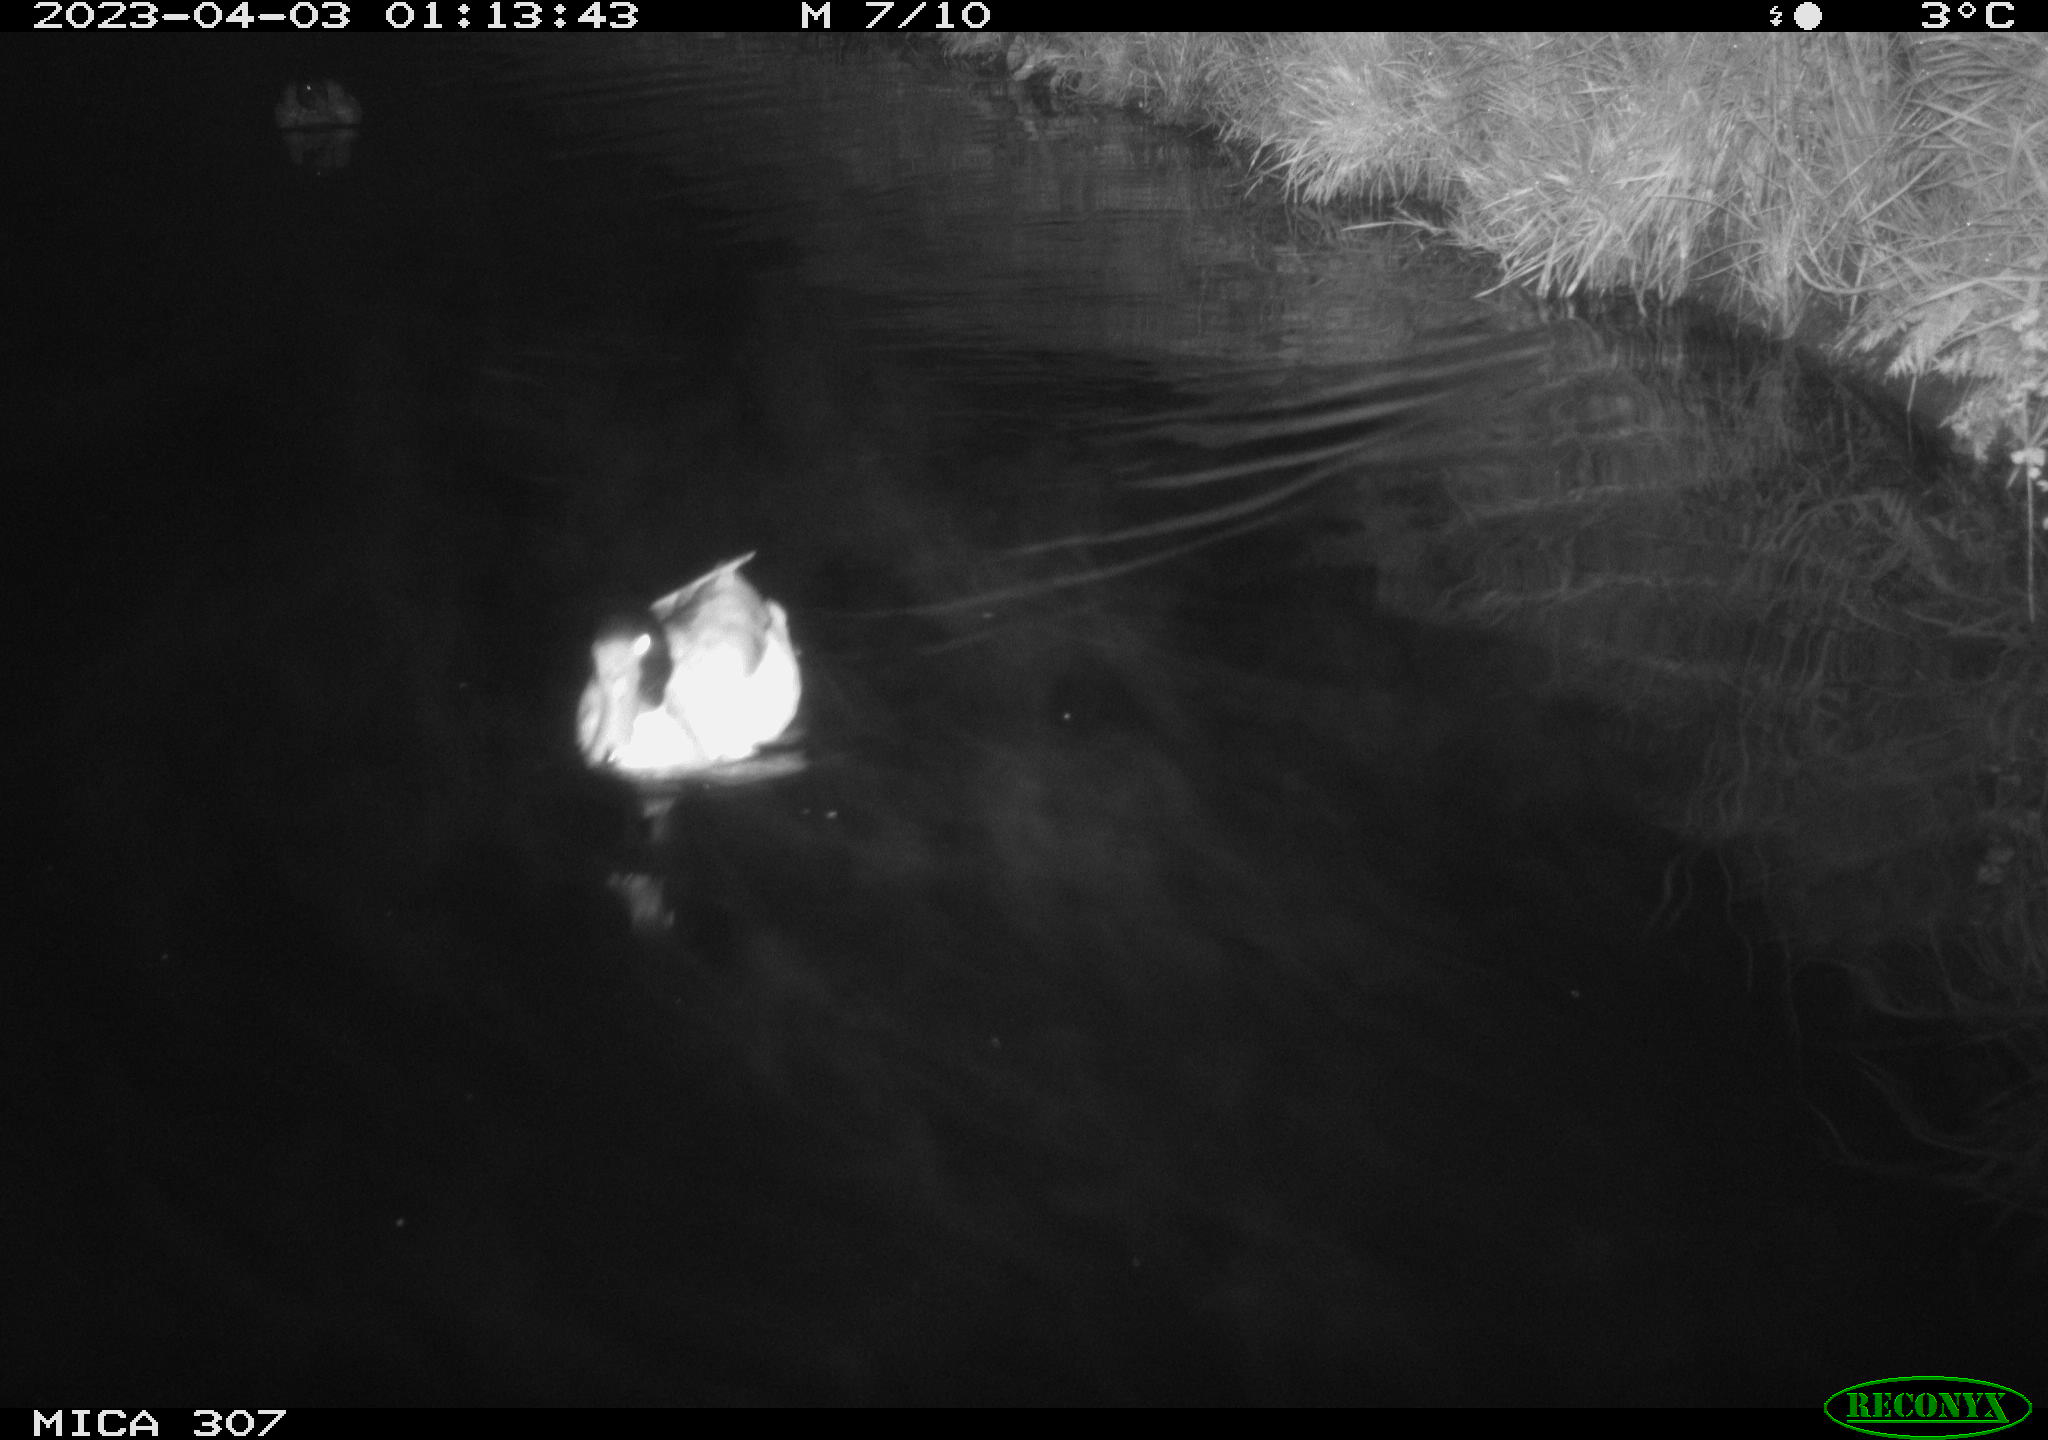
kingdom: Animalia
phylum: Chordata
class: Aves
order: Anseriformes
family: Anatidae
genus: Anas
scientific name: Anas
